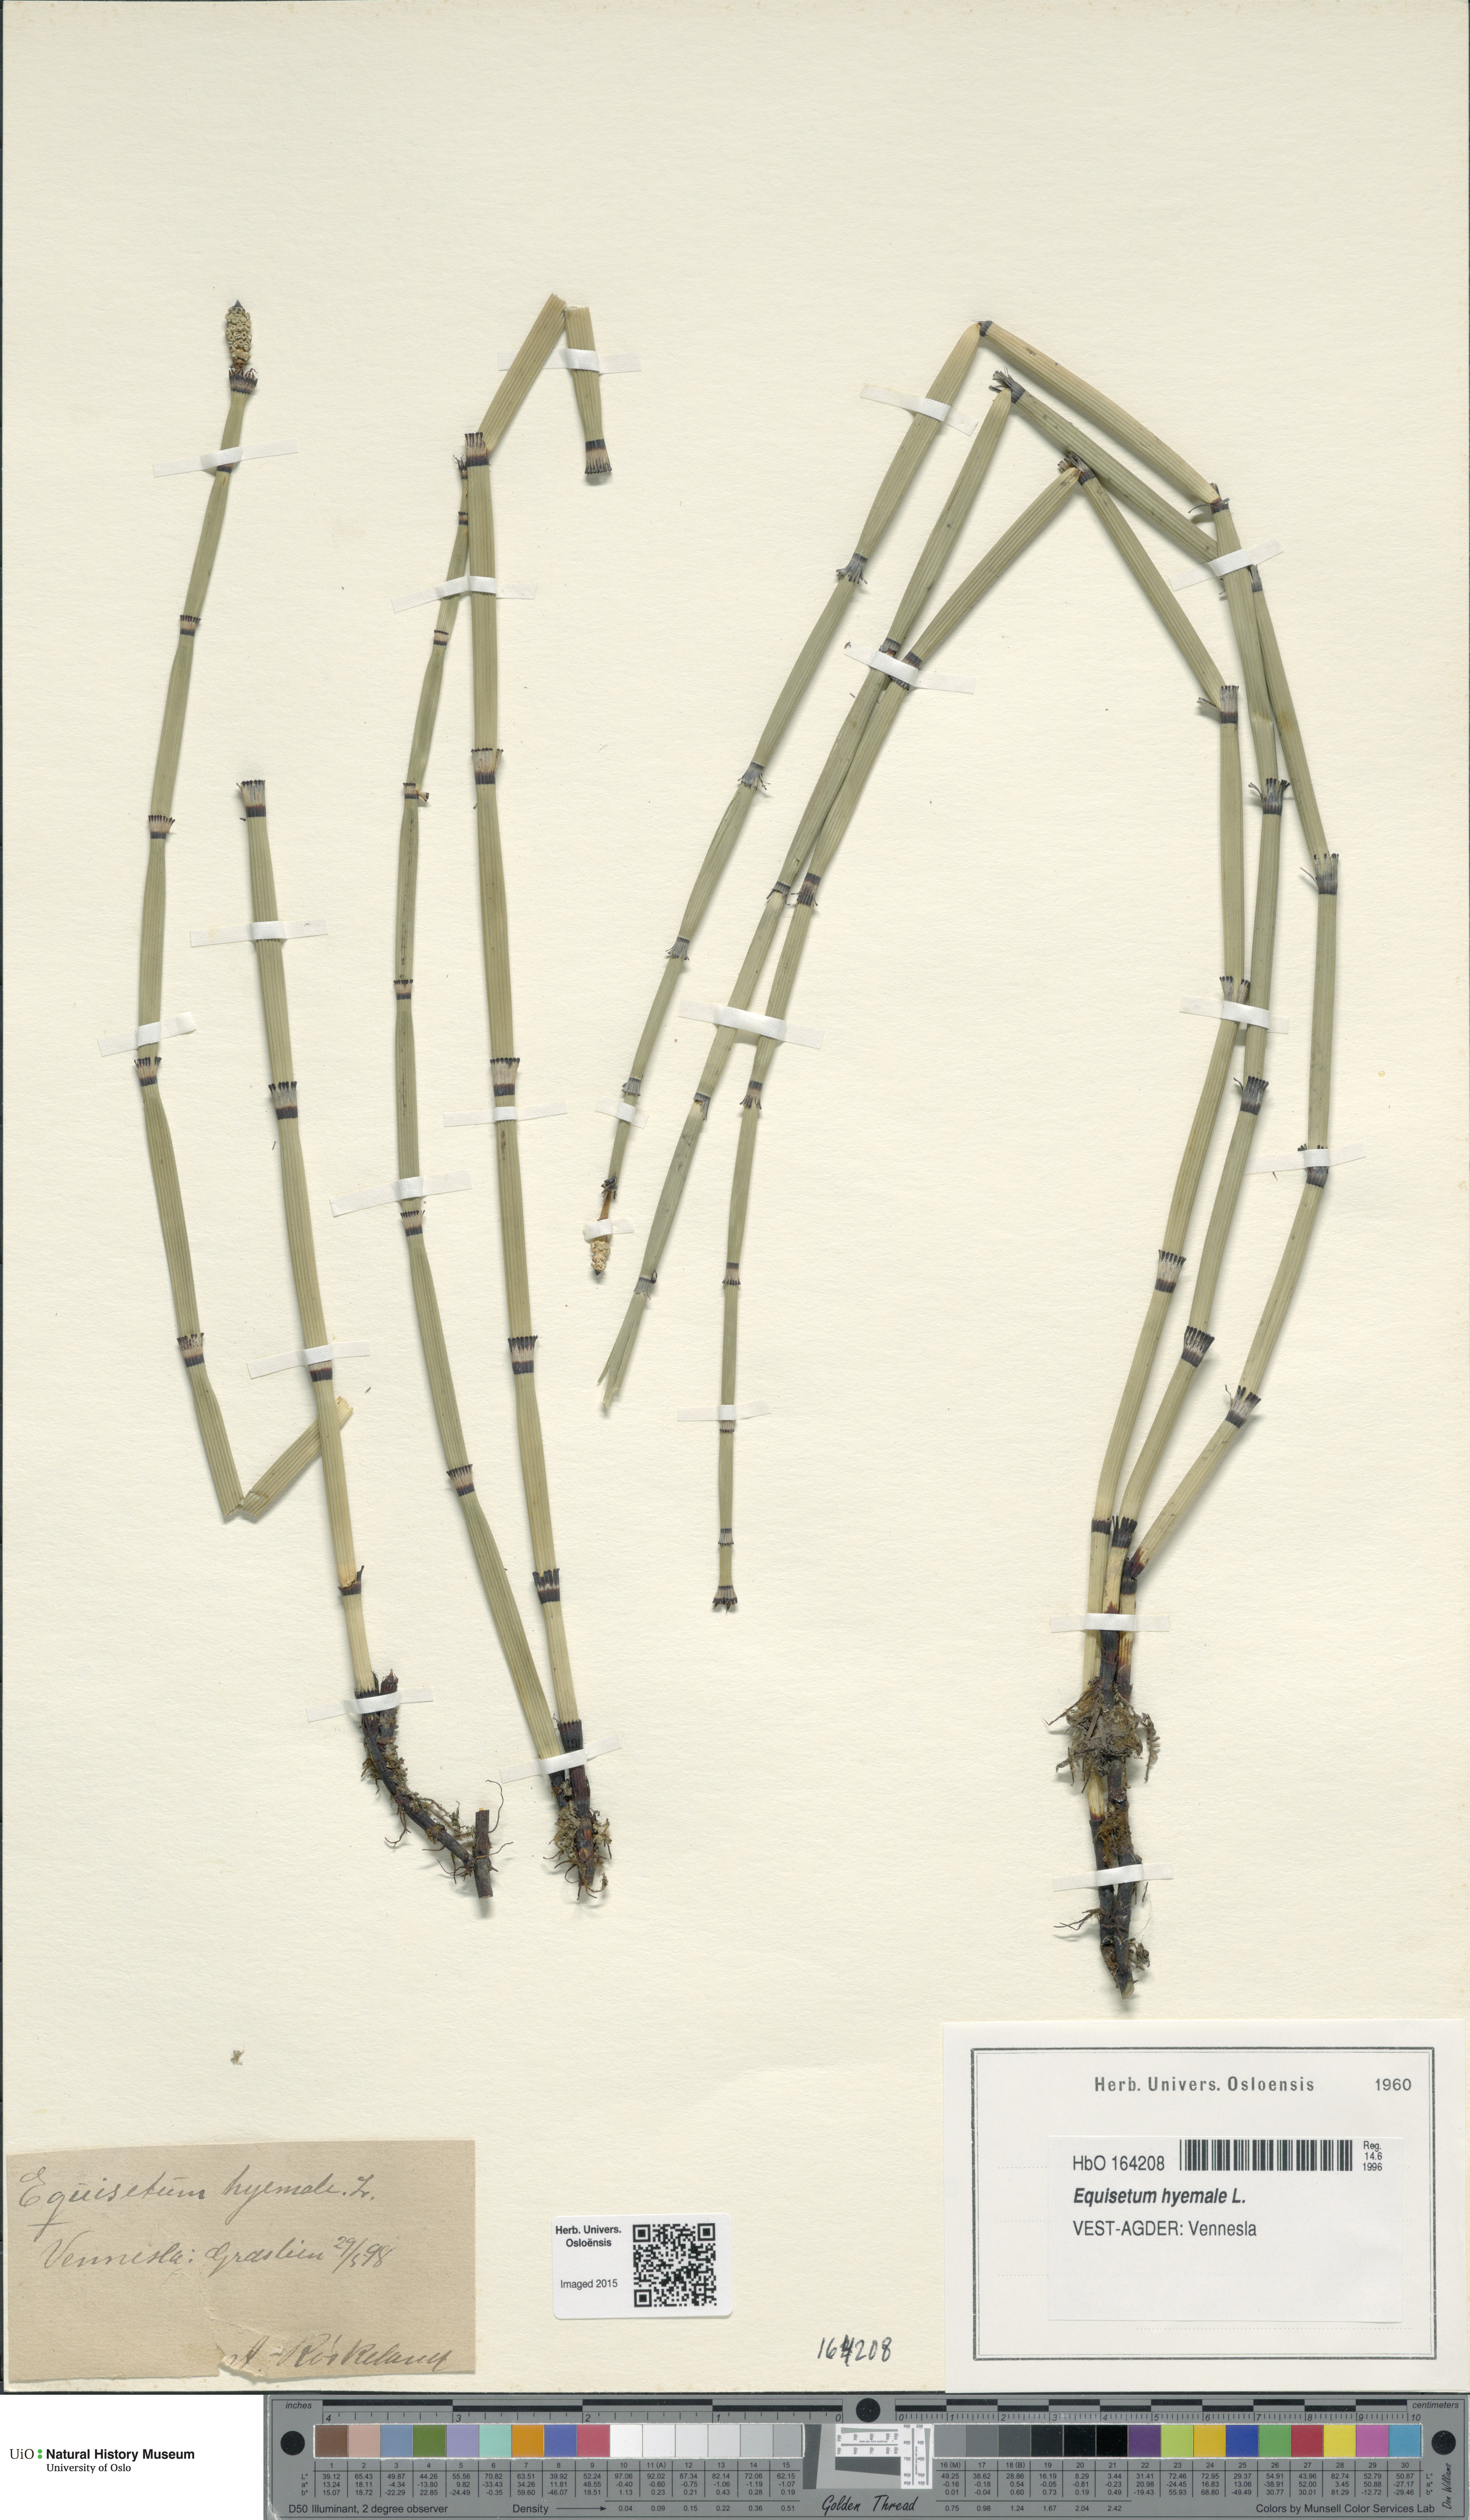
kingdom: Plantae
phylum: Tracheophyta
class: Polypodiopsida
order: Equisetales
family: Equisetaceae
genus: Equisetum
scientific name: Equisetum hyemale
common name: Rough horsetail
